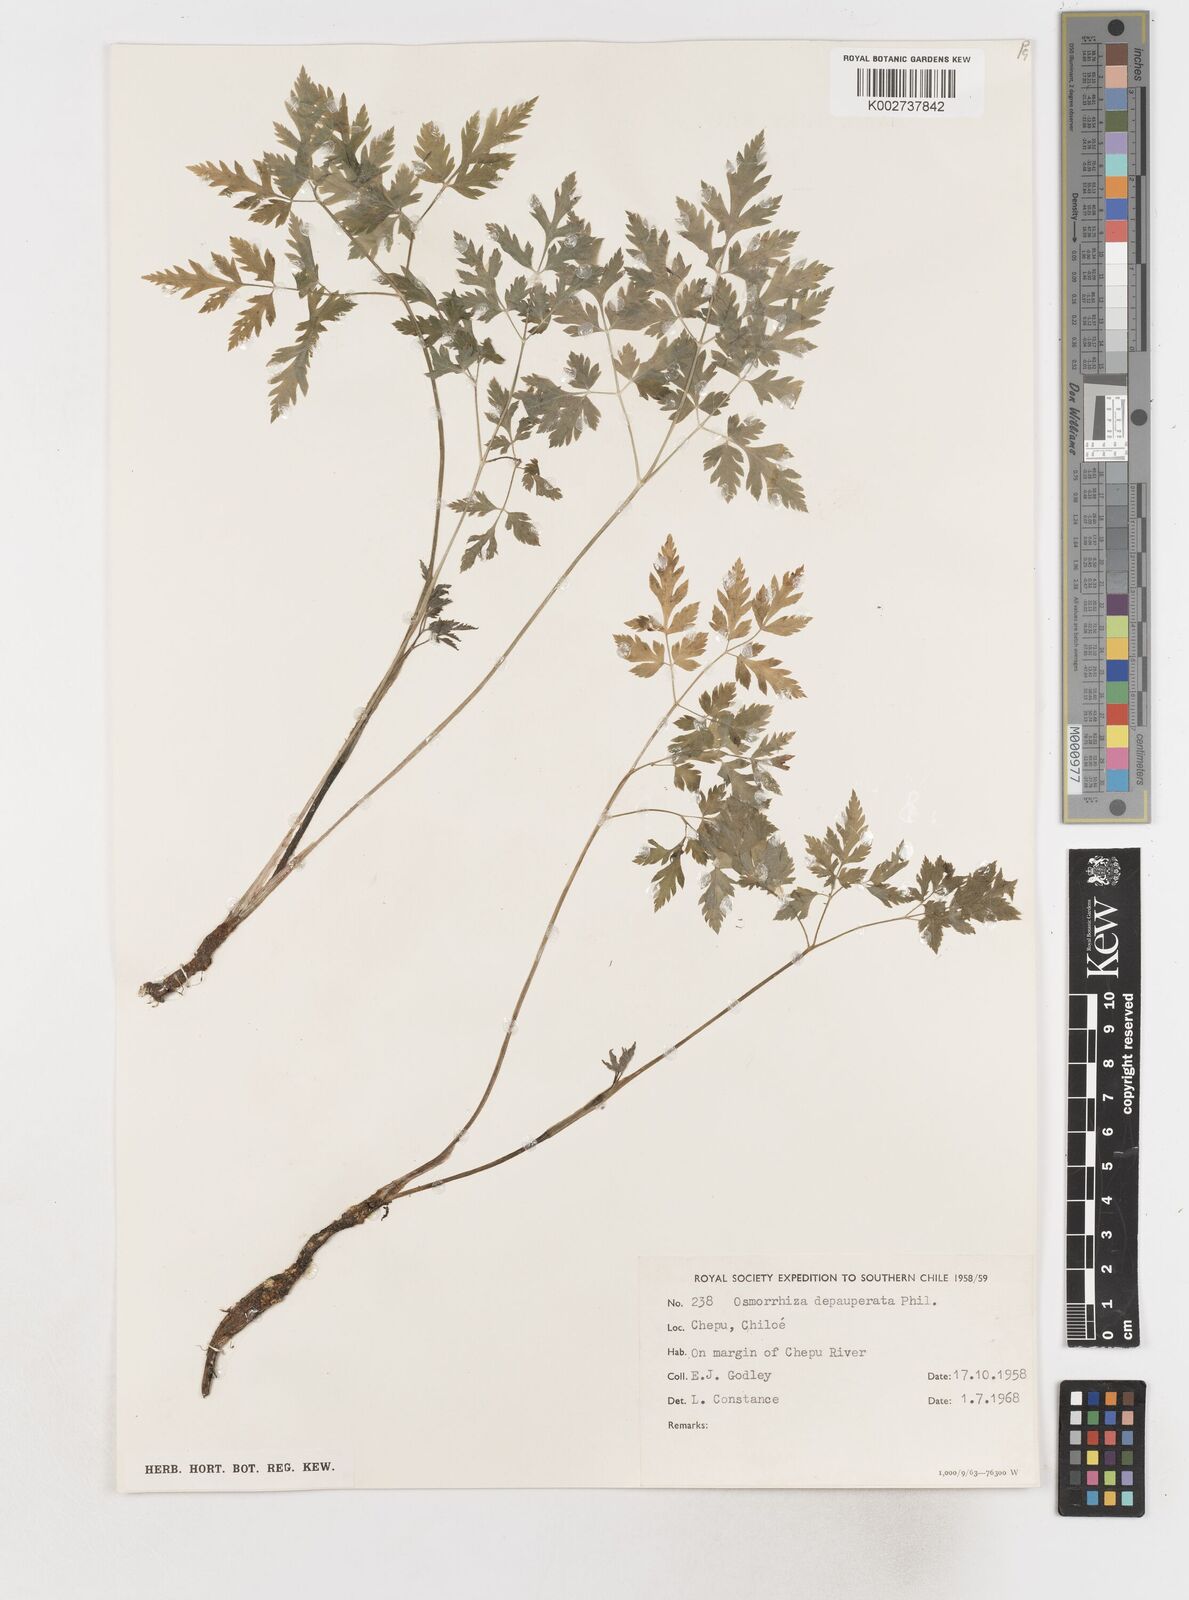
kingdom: Plantae
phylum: Tracheophyta
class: Magnoliopsida
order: Apiales
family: Apiaceae
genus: Osmorhiza
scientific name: Osmorhiza depauperata
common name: Blunt sweet cicely
